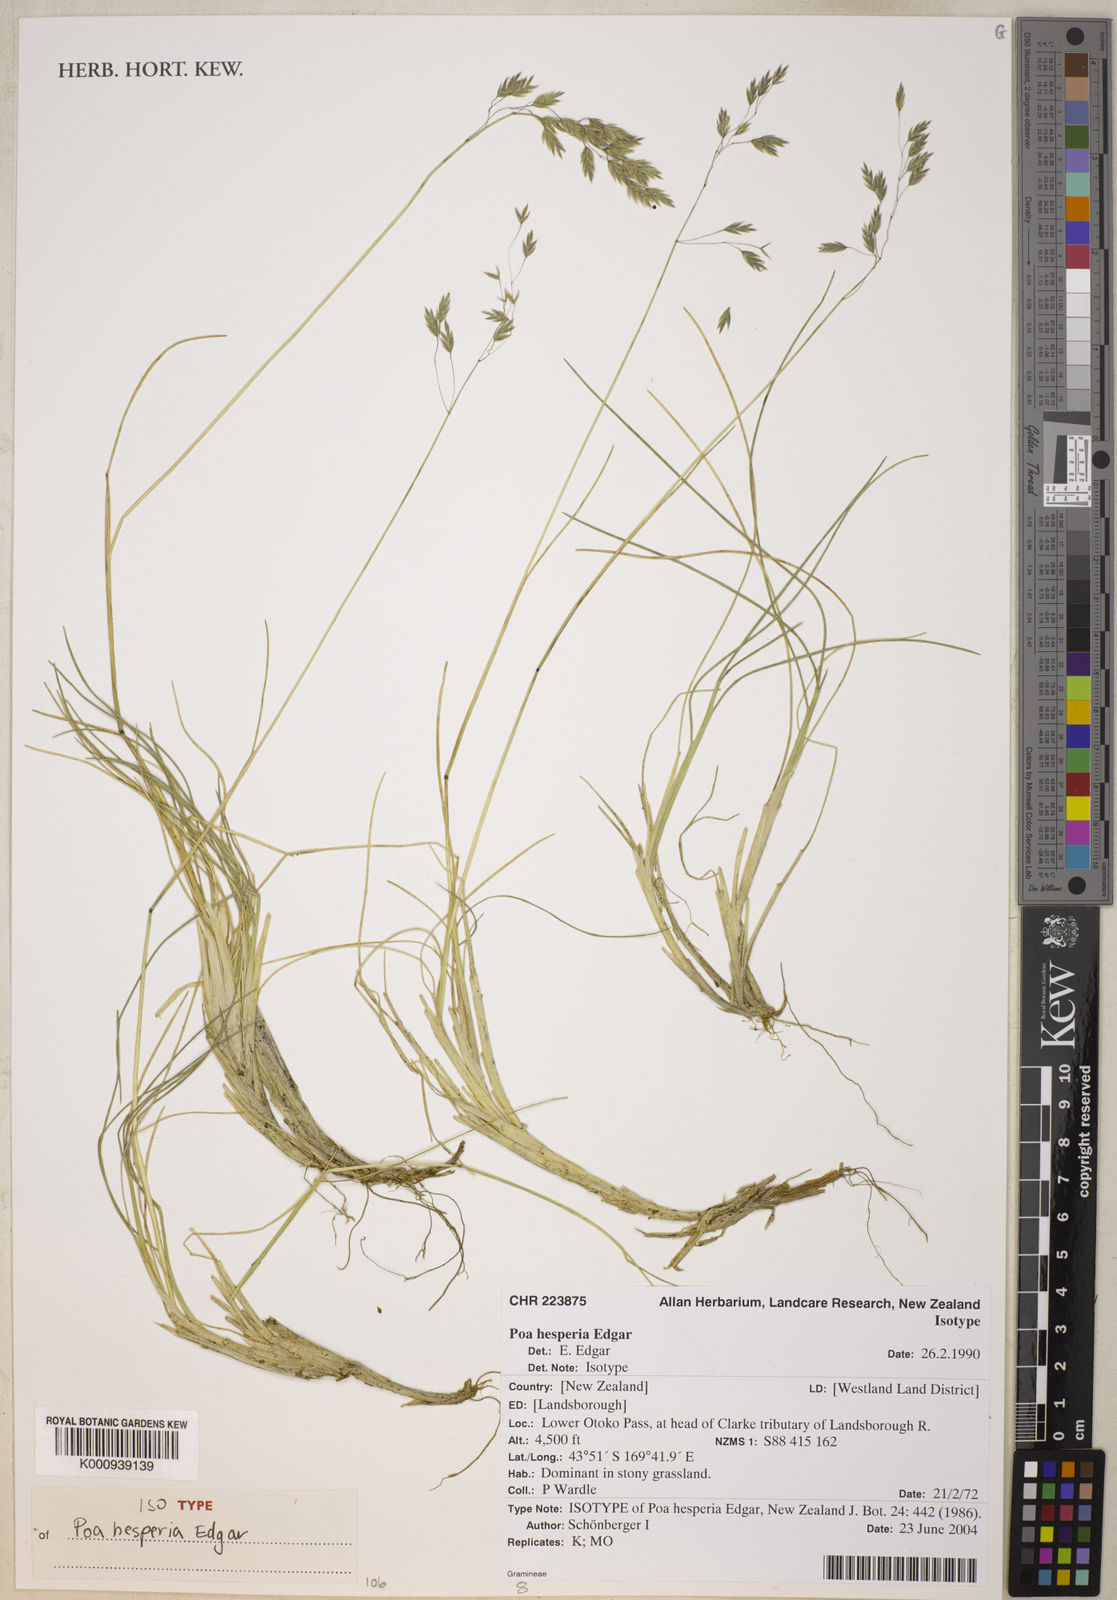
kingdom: Plantae
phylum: Tracheophyta
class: Liliopsida
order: Poales
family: Poaceae
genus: Poa
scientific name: Poa hesperia
